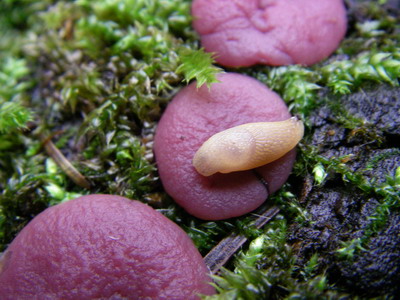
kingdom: Fungi
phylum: Ascomycota
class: Leotiomycetes
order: Helotiales
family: Gelatinodiscaceae
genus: Ascocoryne
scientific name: Ascocoryne cylichnium
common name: stor sejskive
